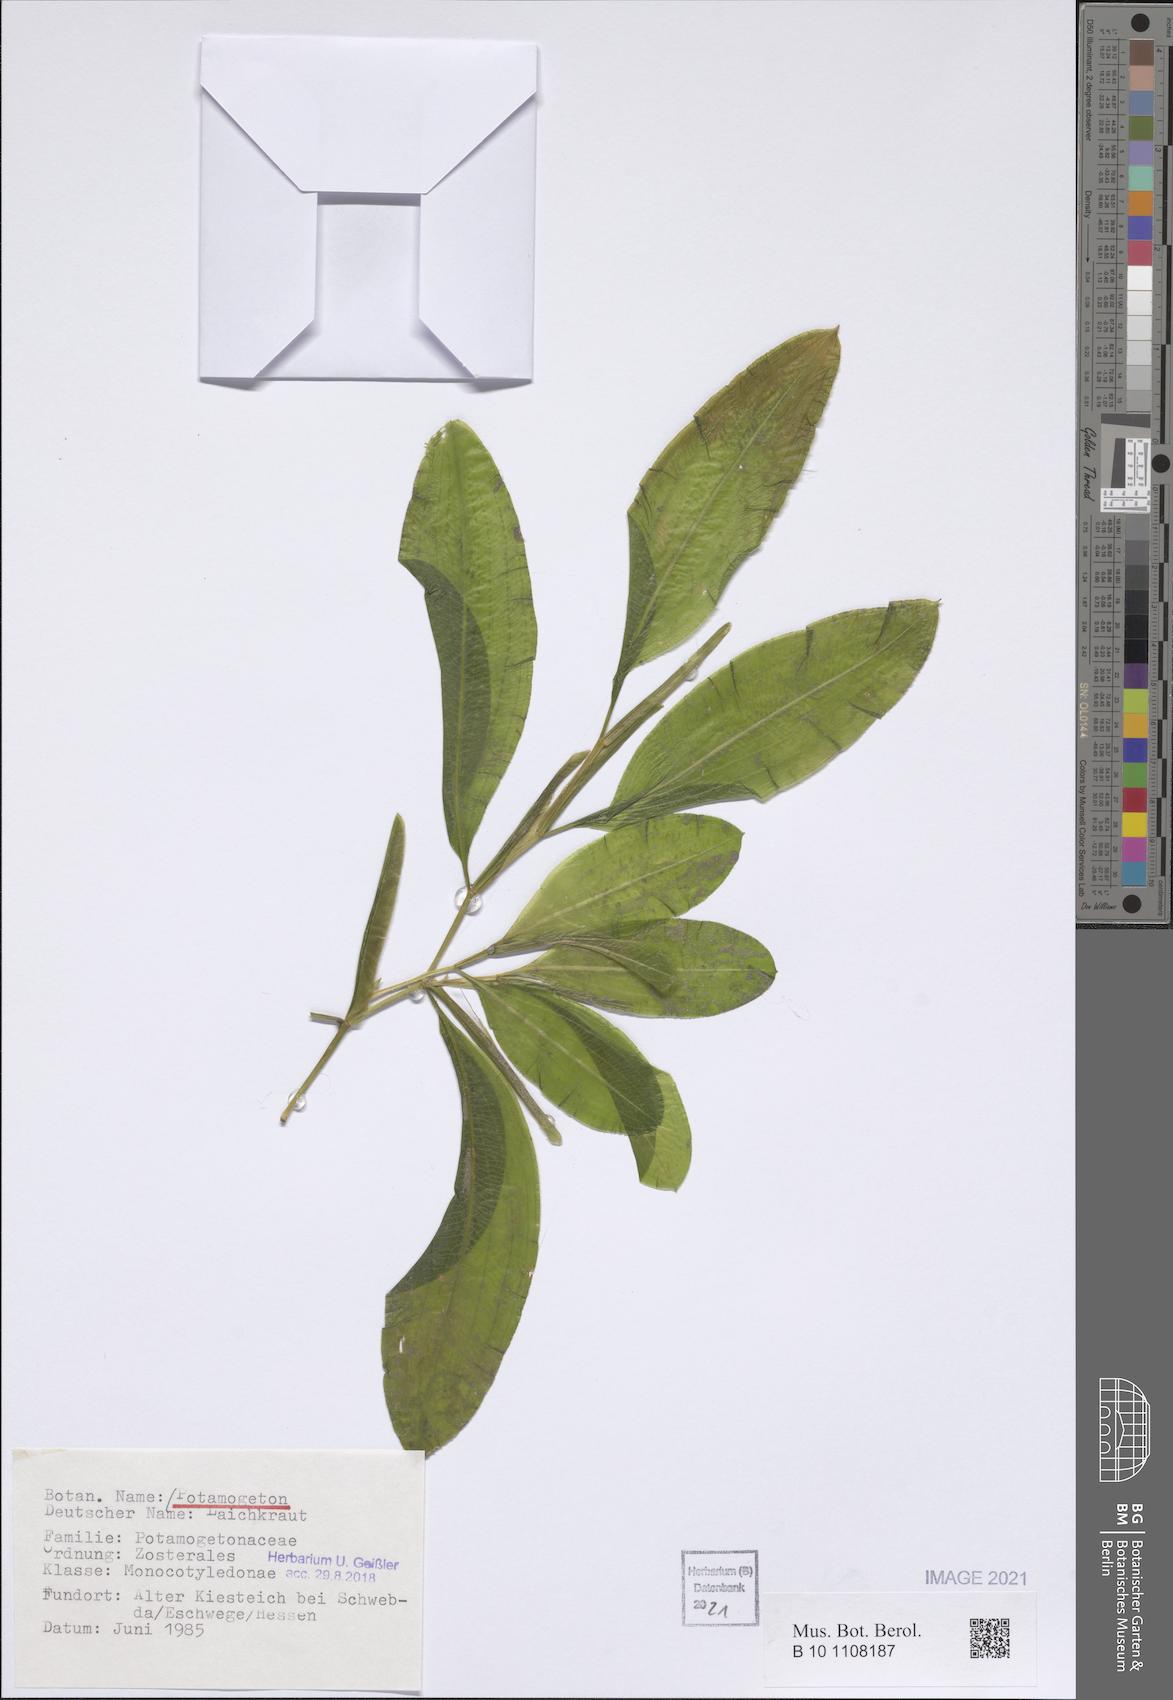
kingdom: Plantae
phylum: Tracheophyta
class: Liliopsida
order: Alismatales
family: Potamogetonaceae
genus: Potamogeton
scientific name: Potamogeton
